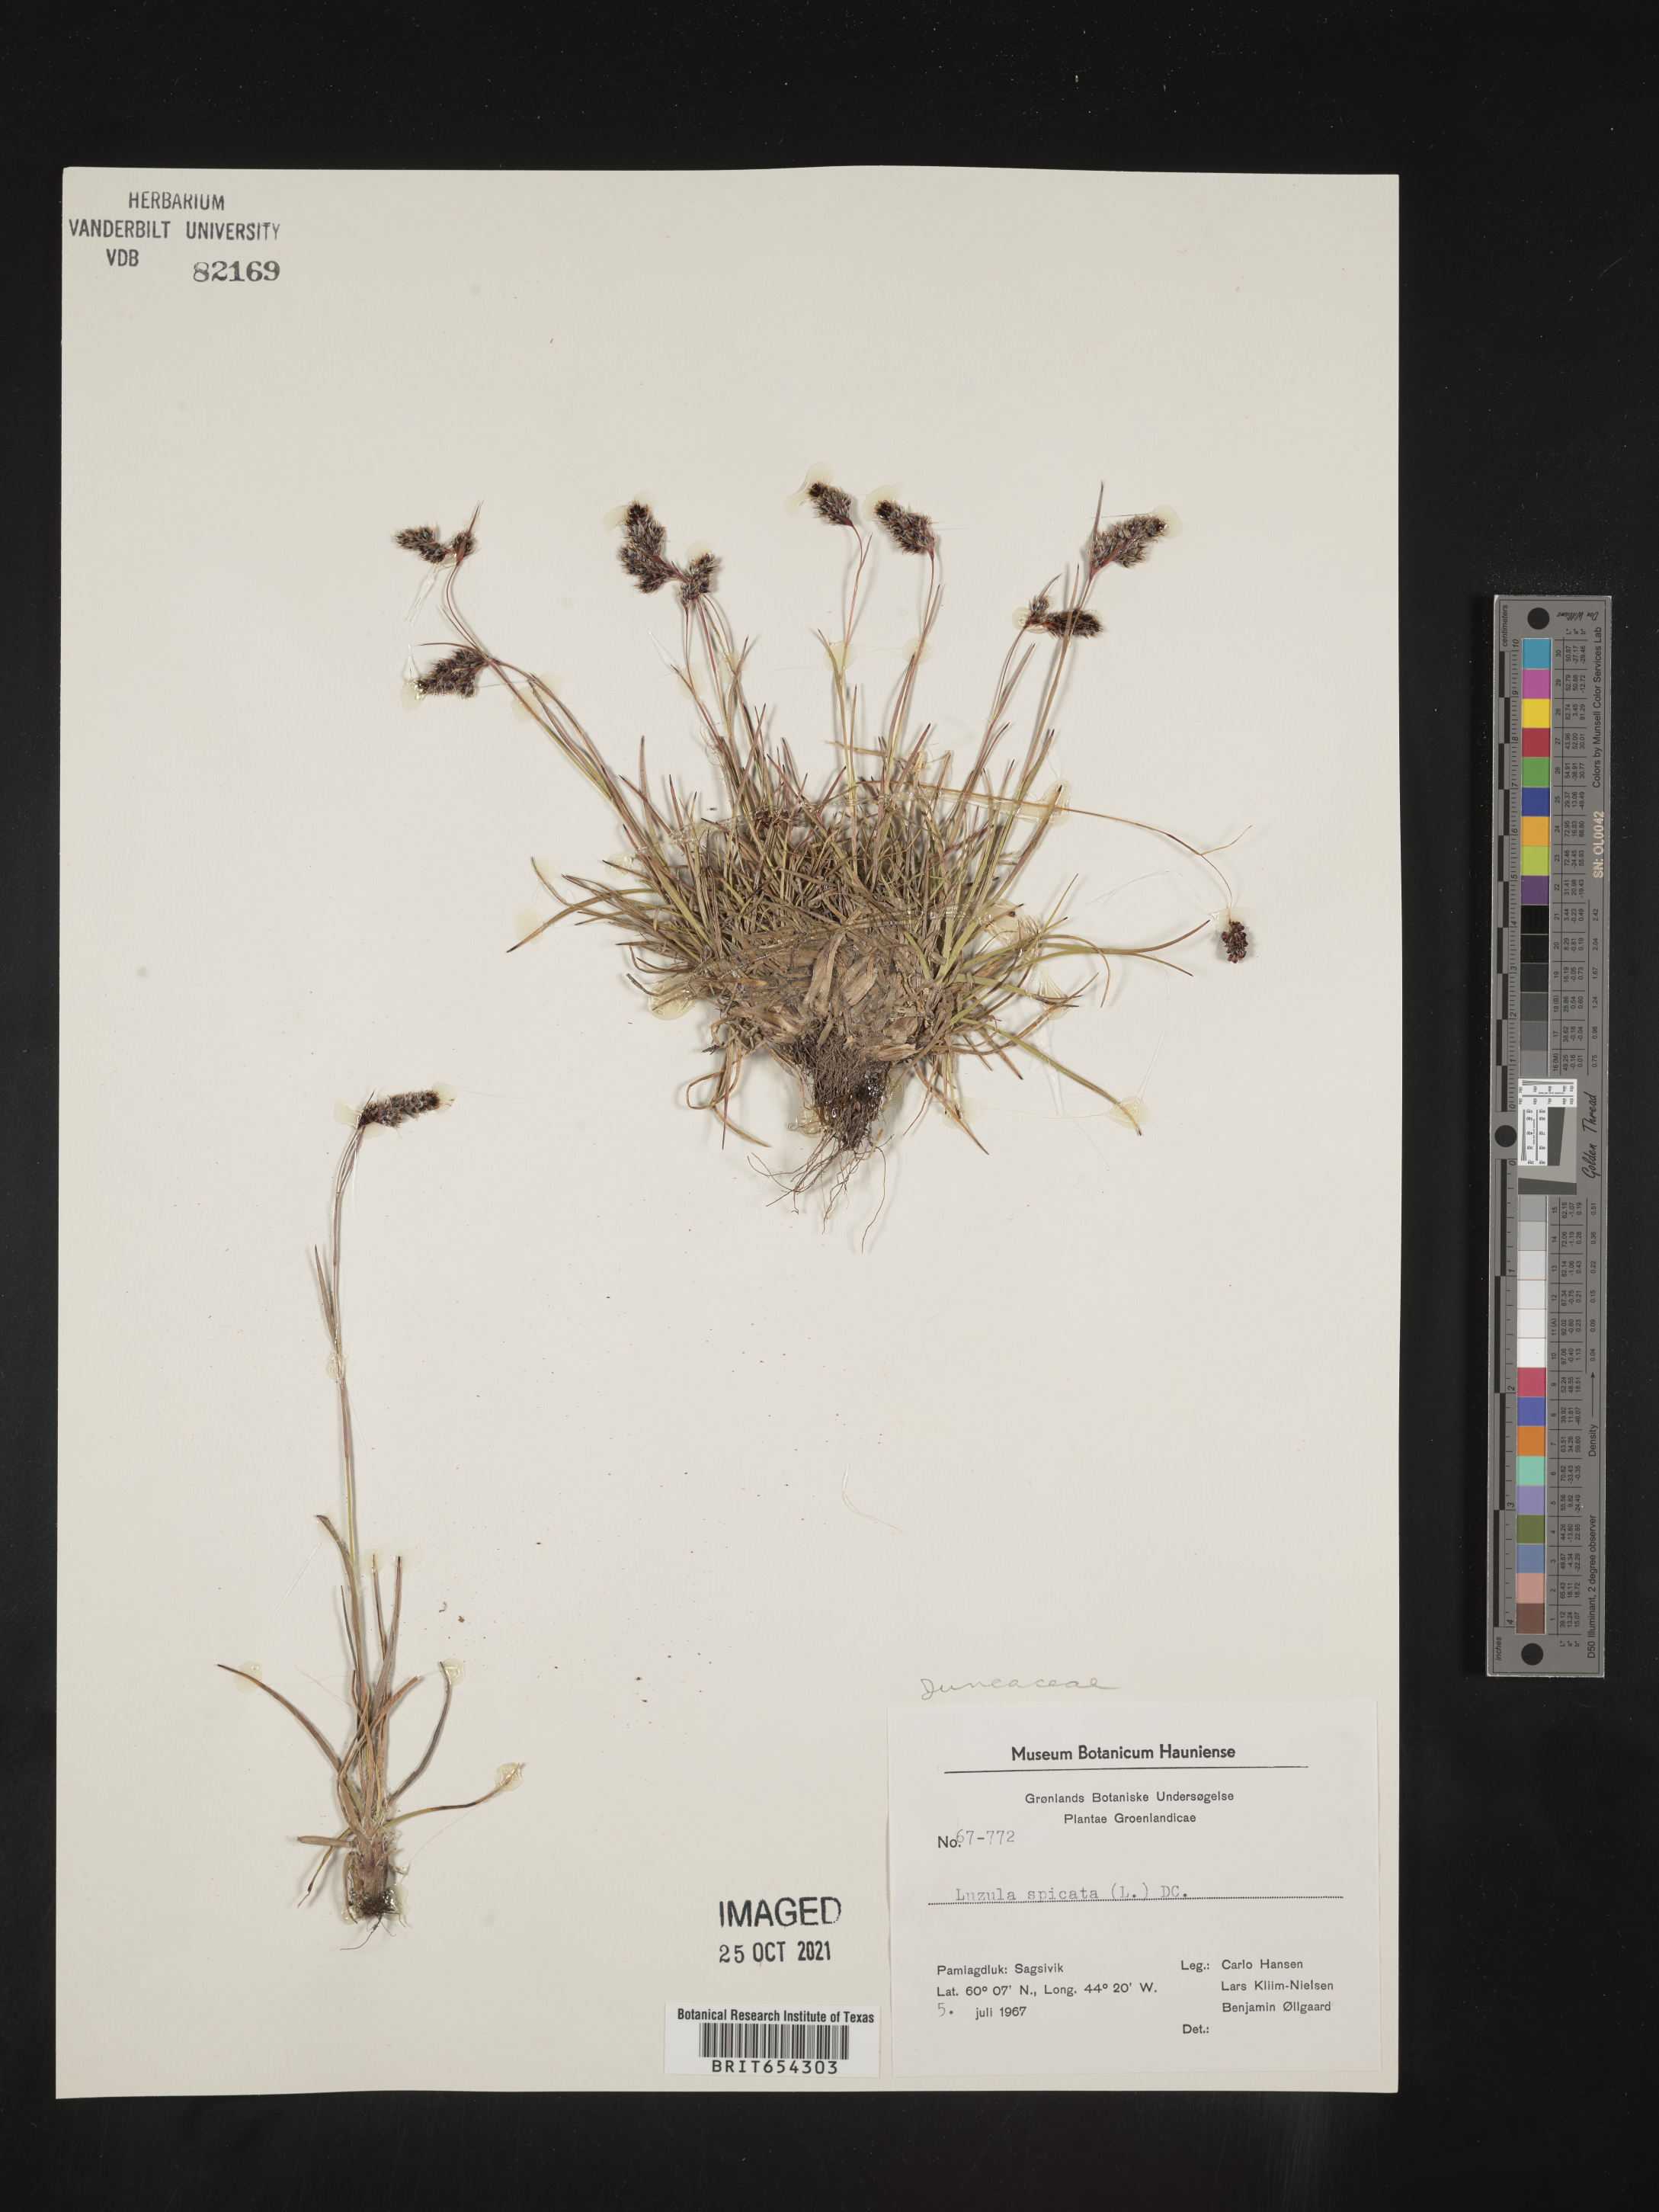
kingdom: Plantae
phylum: Tracheophyta
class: Liliopsida
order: Poales
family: Juncaceae
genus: Luzula
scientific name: Luzula
